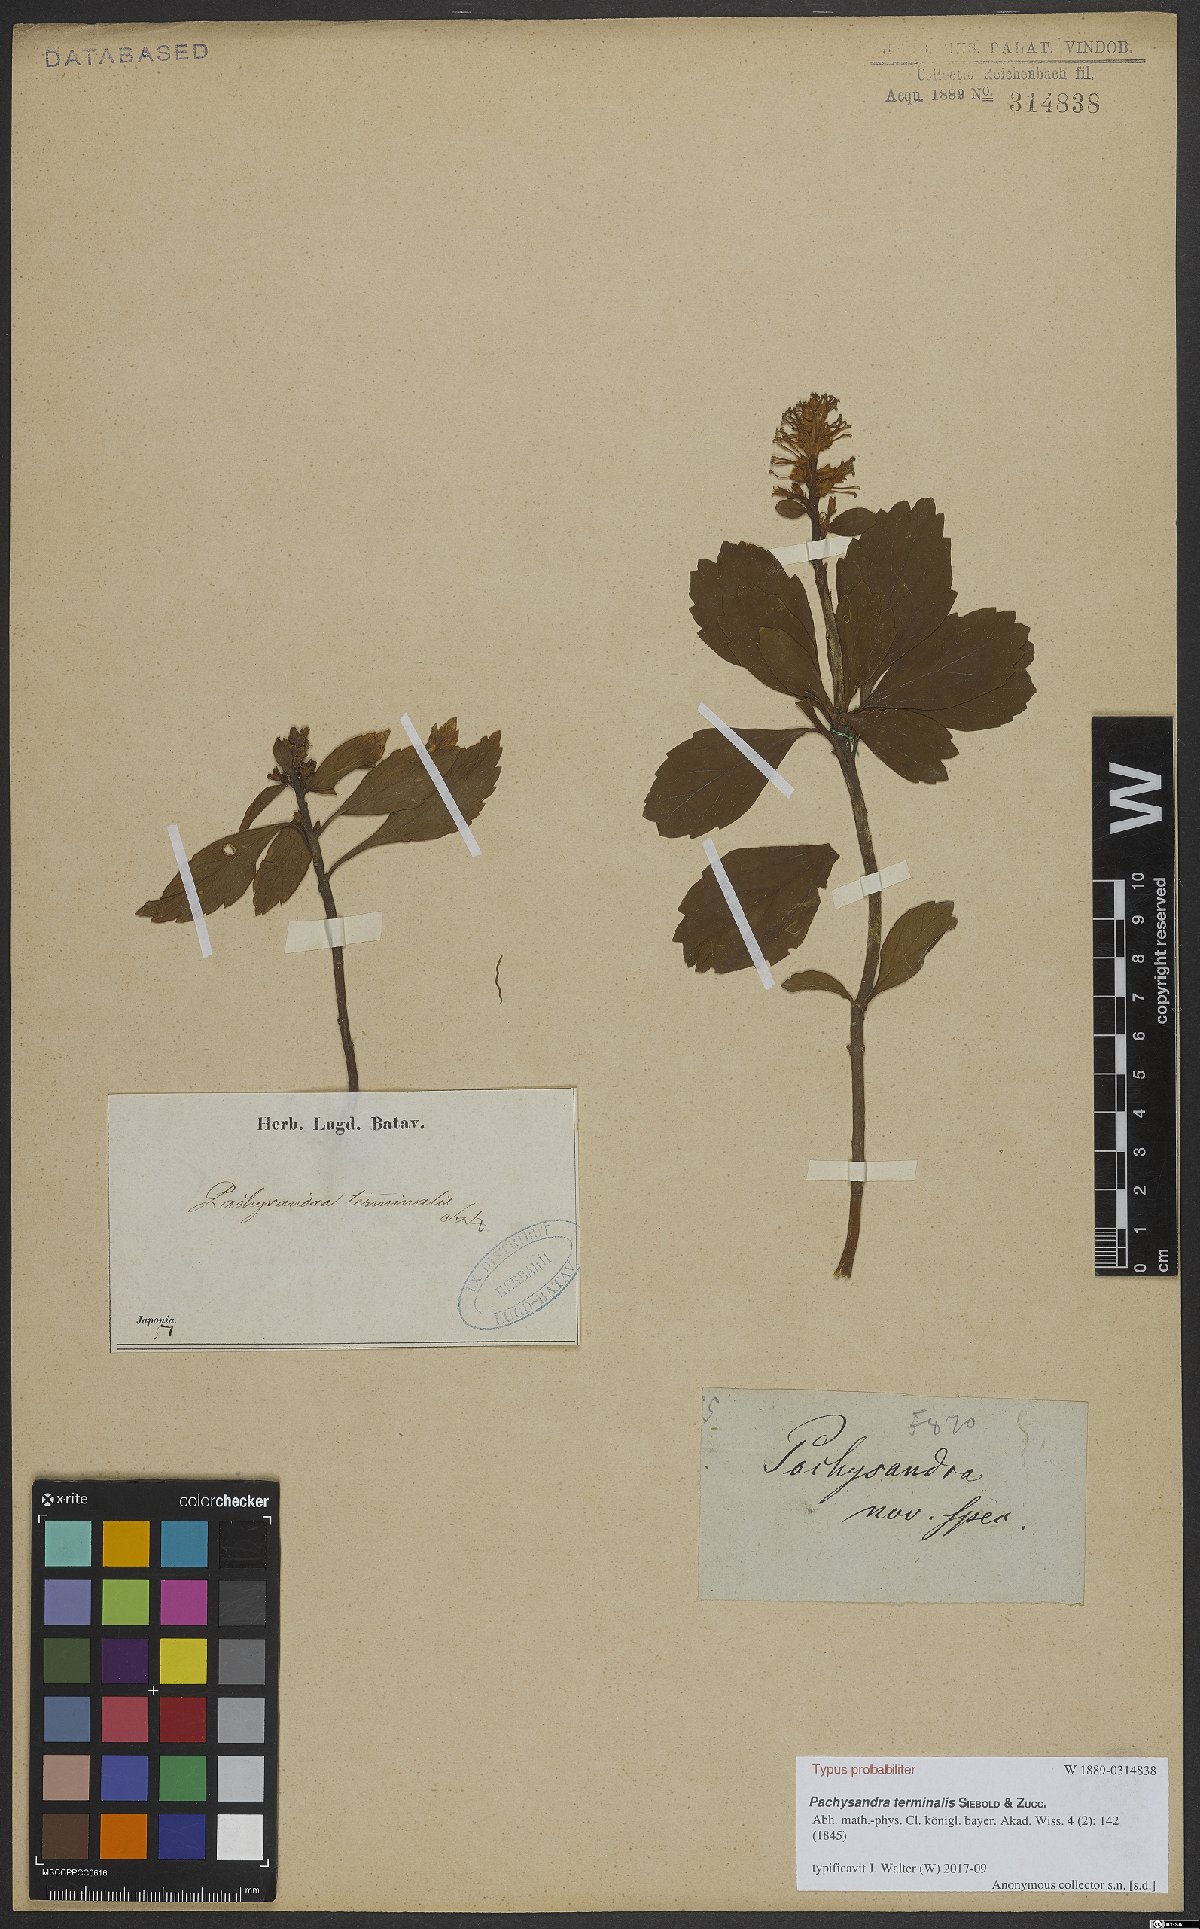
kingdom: Plantae
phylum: Tracheophyta
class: Magnoliopsida
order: Buxales
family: Buxaceae
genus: Pachysandra
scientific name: Pachysandra terminalis
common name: Japanese pachysandra
